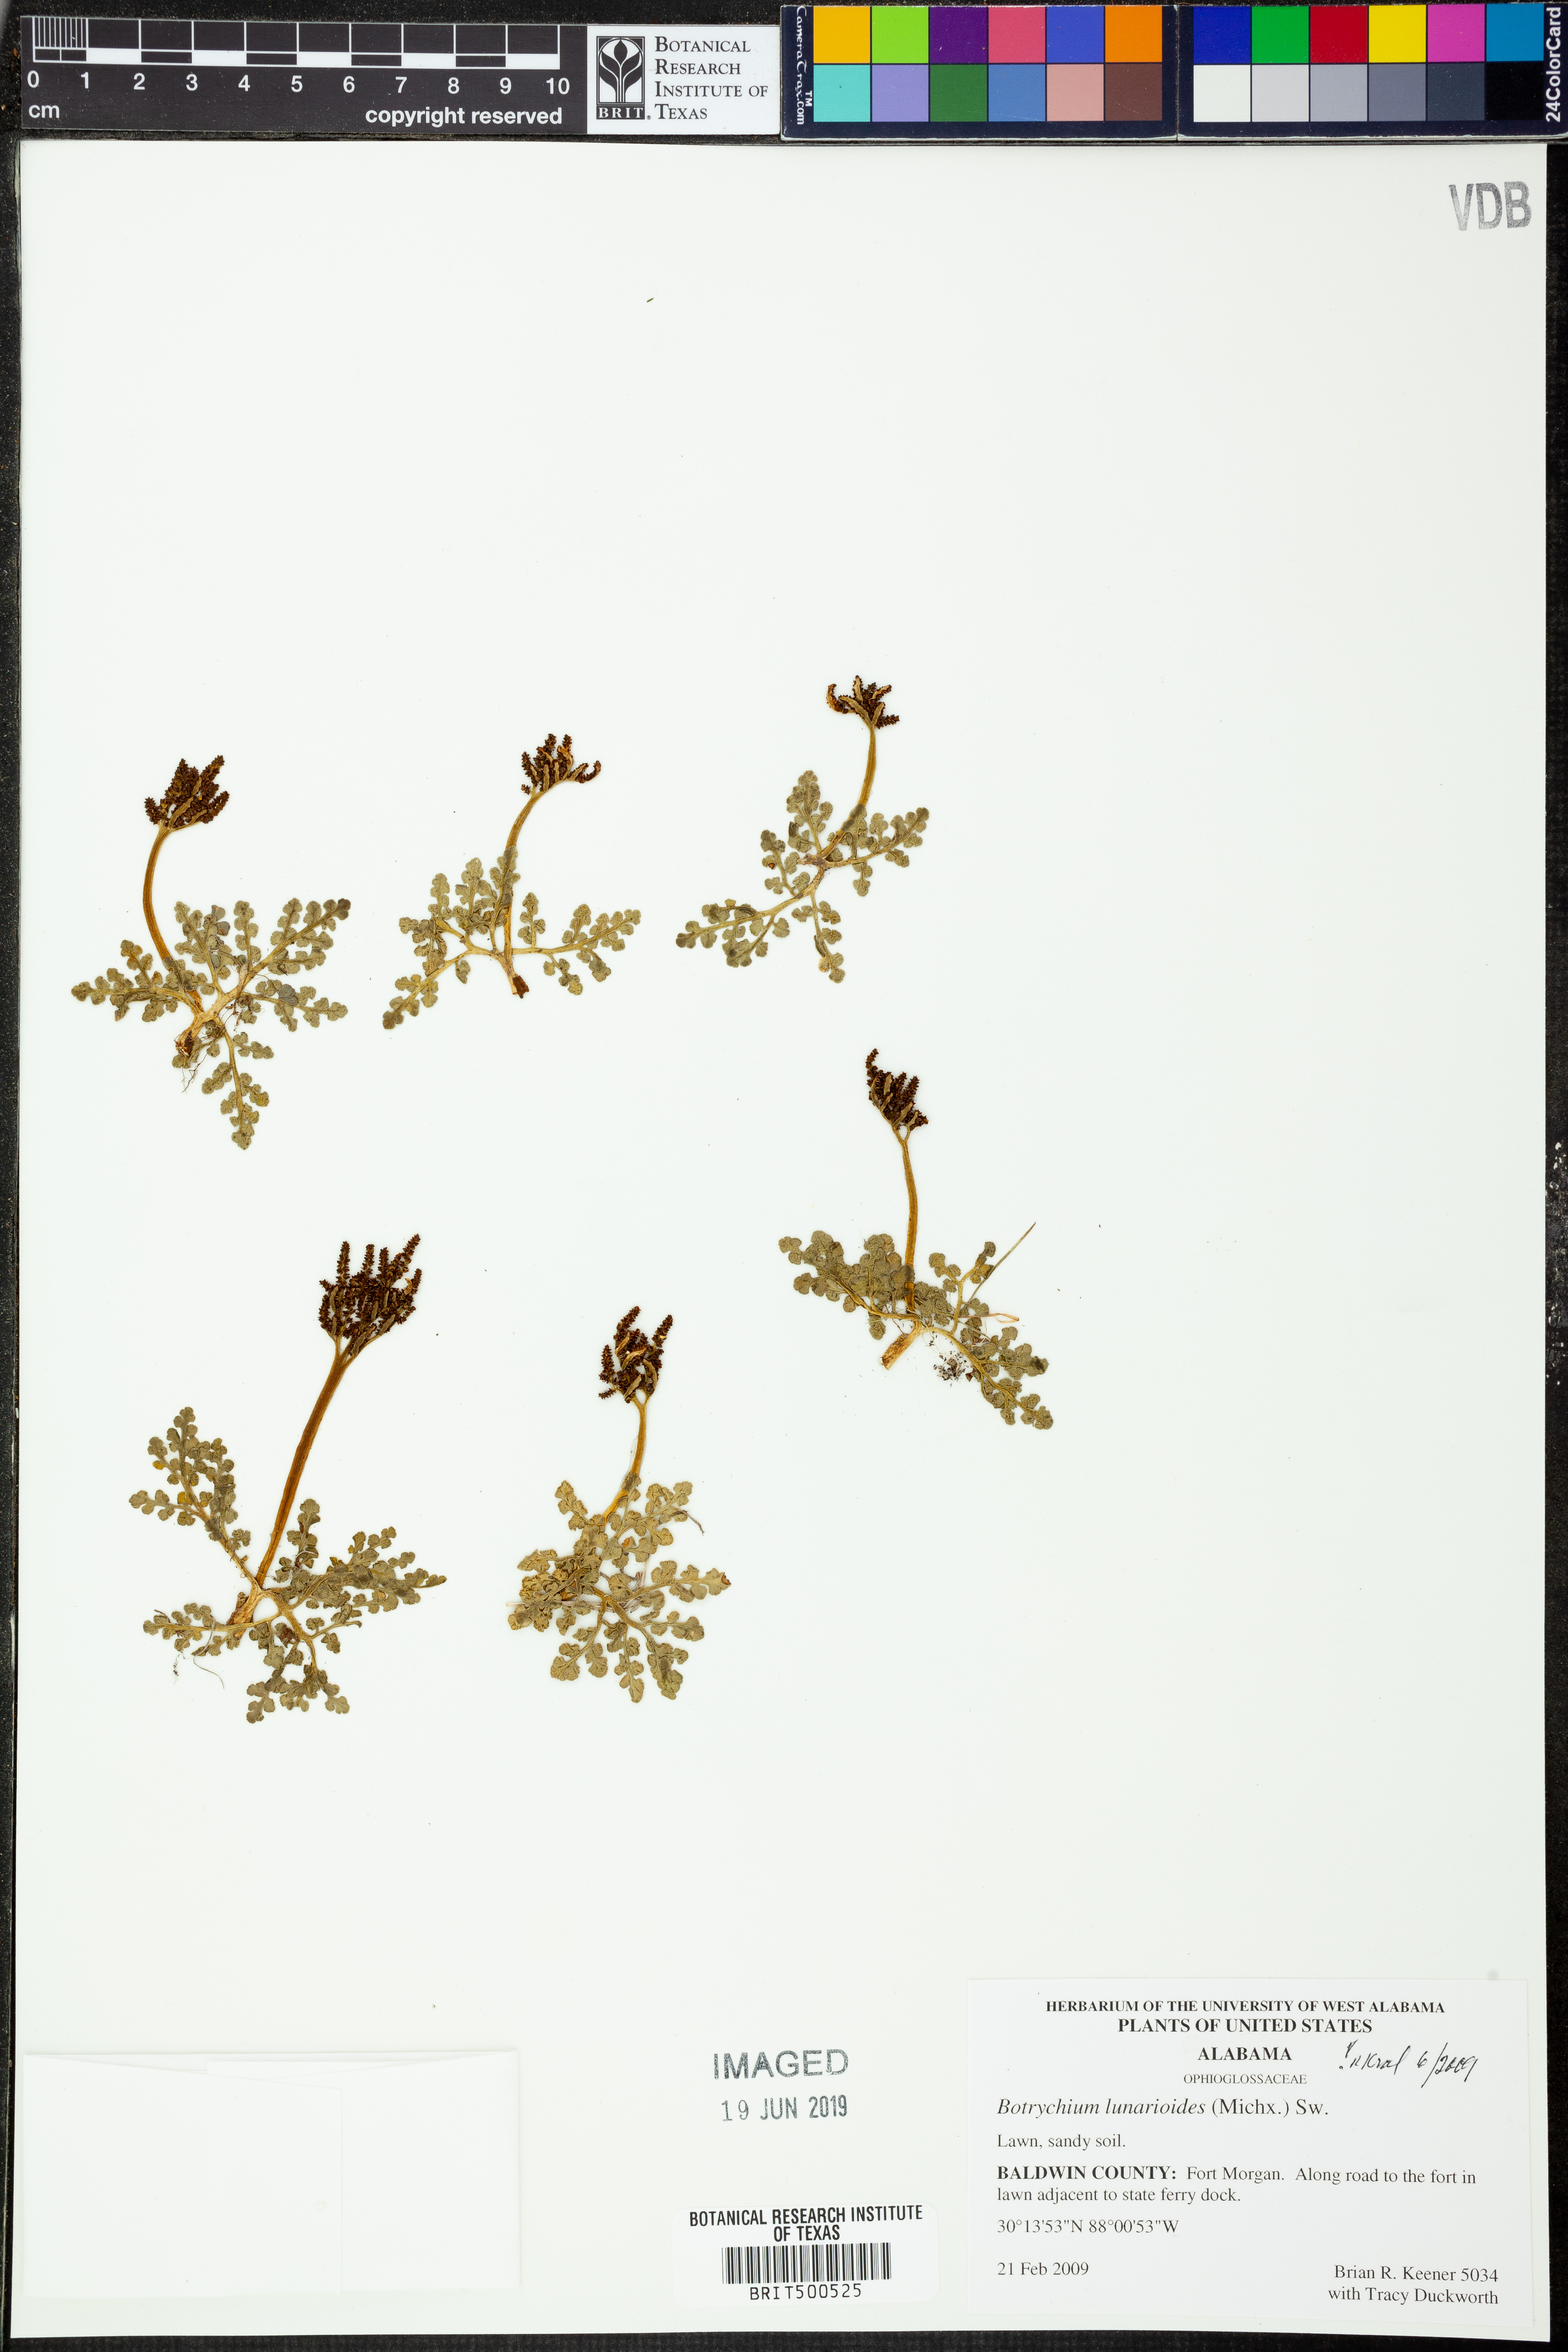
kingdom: Plantae
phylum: Tracheophyta
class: Polypodiopsida
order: Ophioglossales
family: Ophioglossaceae
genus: Sceptridium
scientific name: Sceptridium lunarioides
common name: Prostrate grapefern
